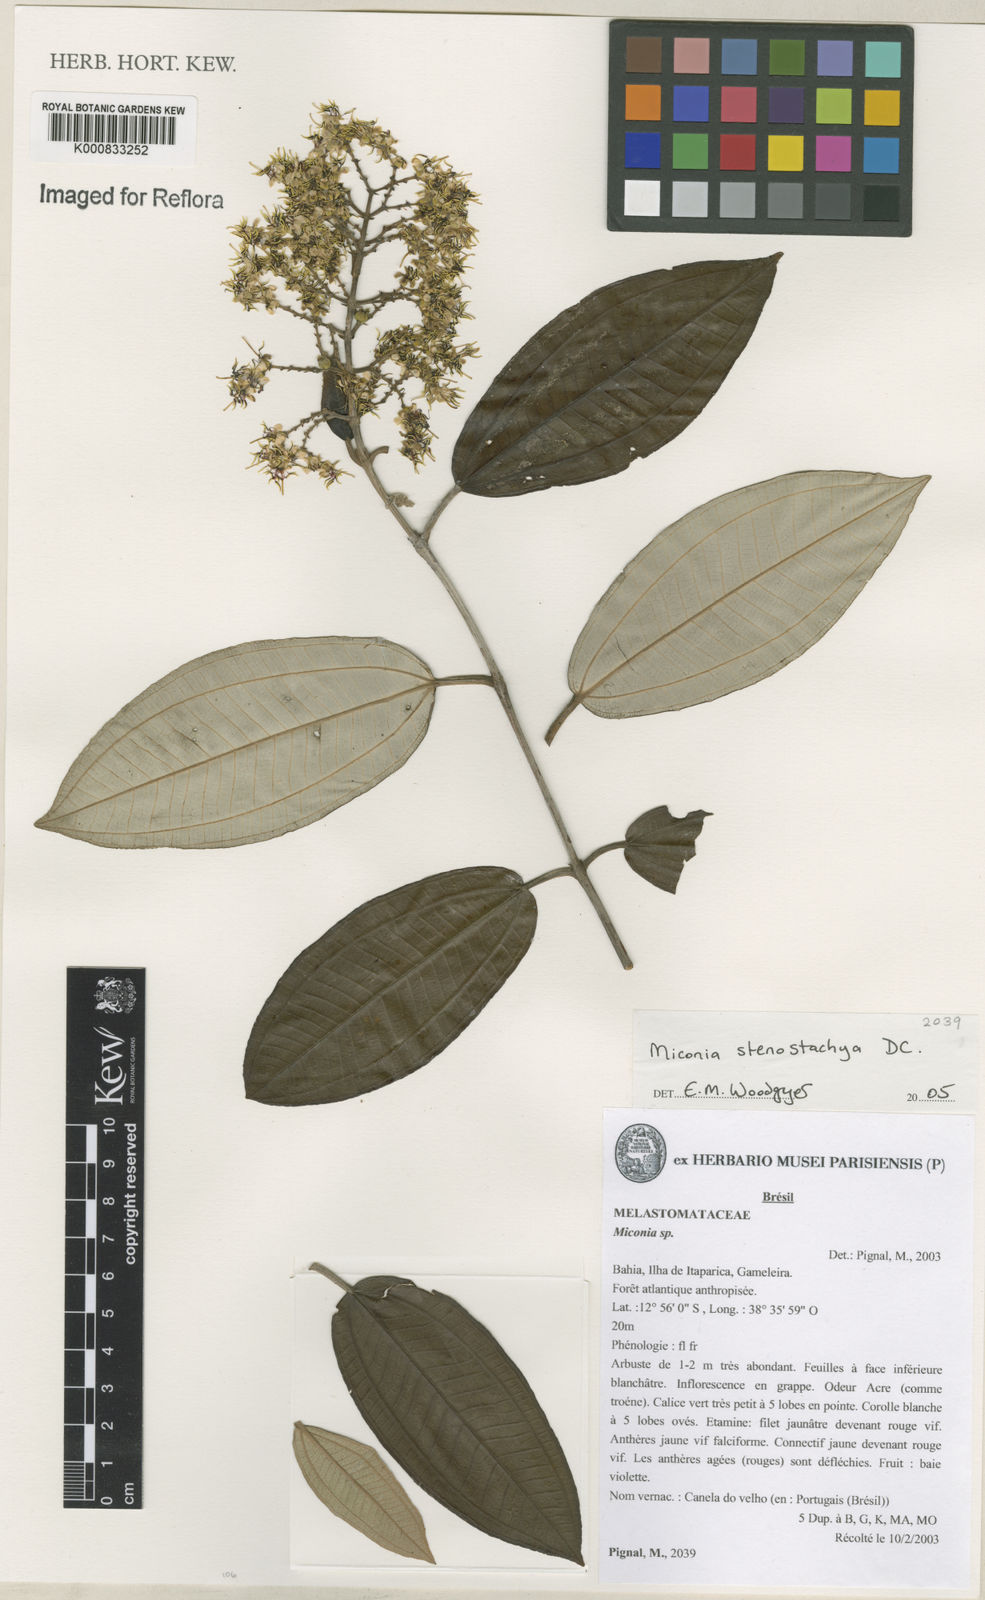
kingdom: Plantae
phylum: Tracheophyta
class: Magnoliopsida
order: Myrtales
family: Melastomataceae
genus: Miconia
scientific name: Miconia stenostachya
